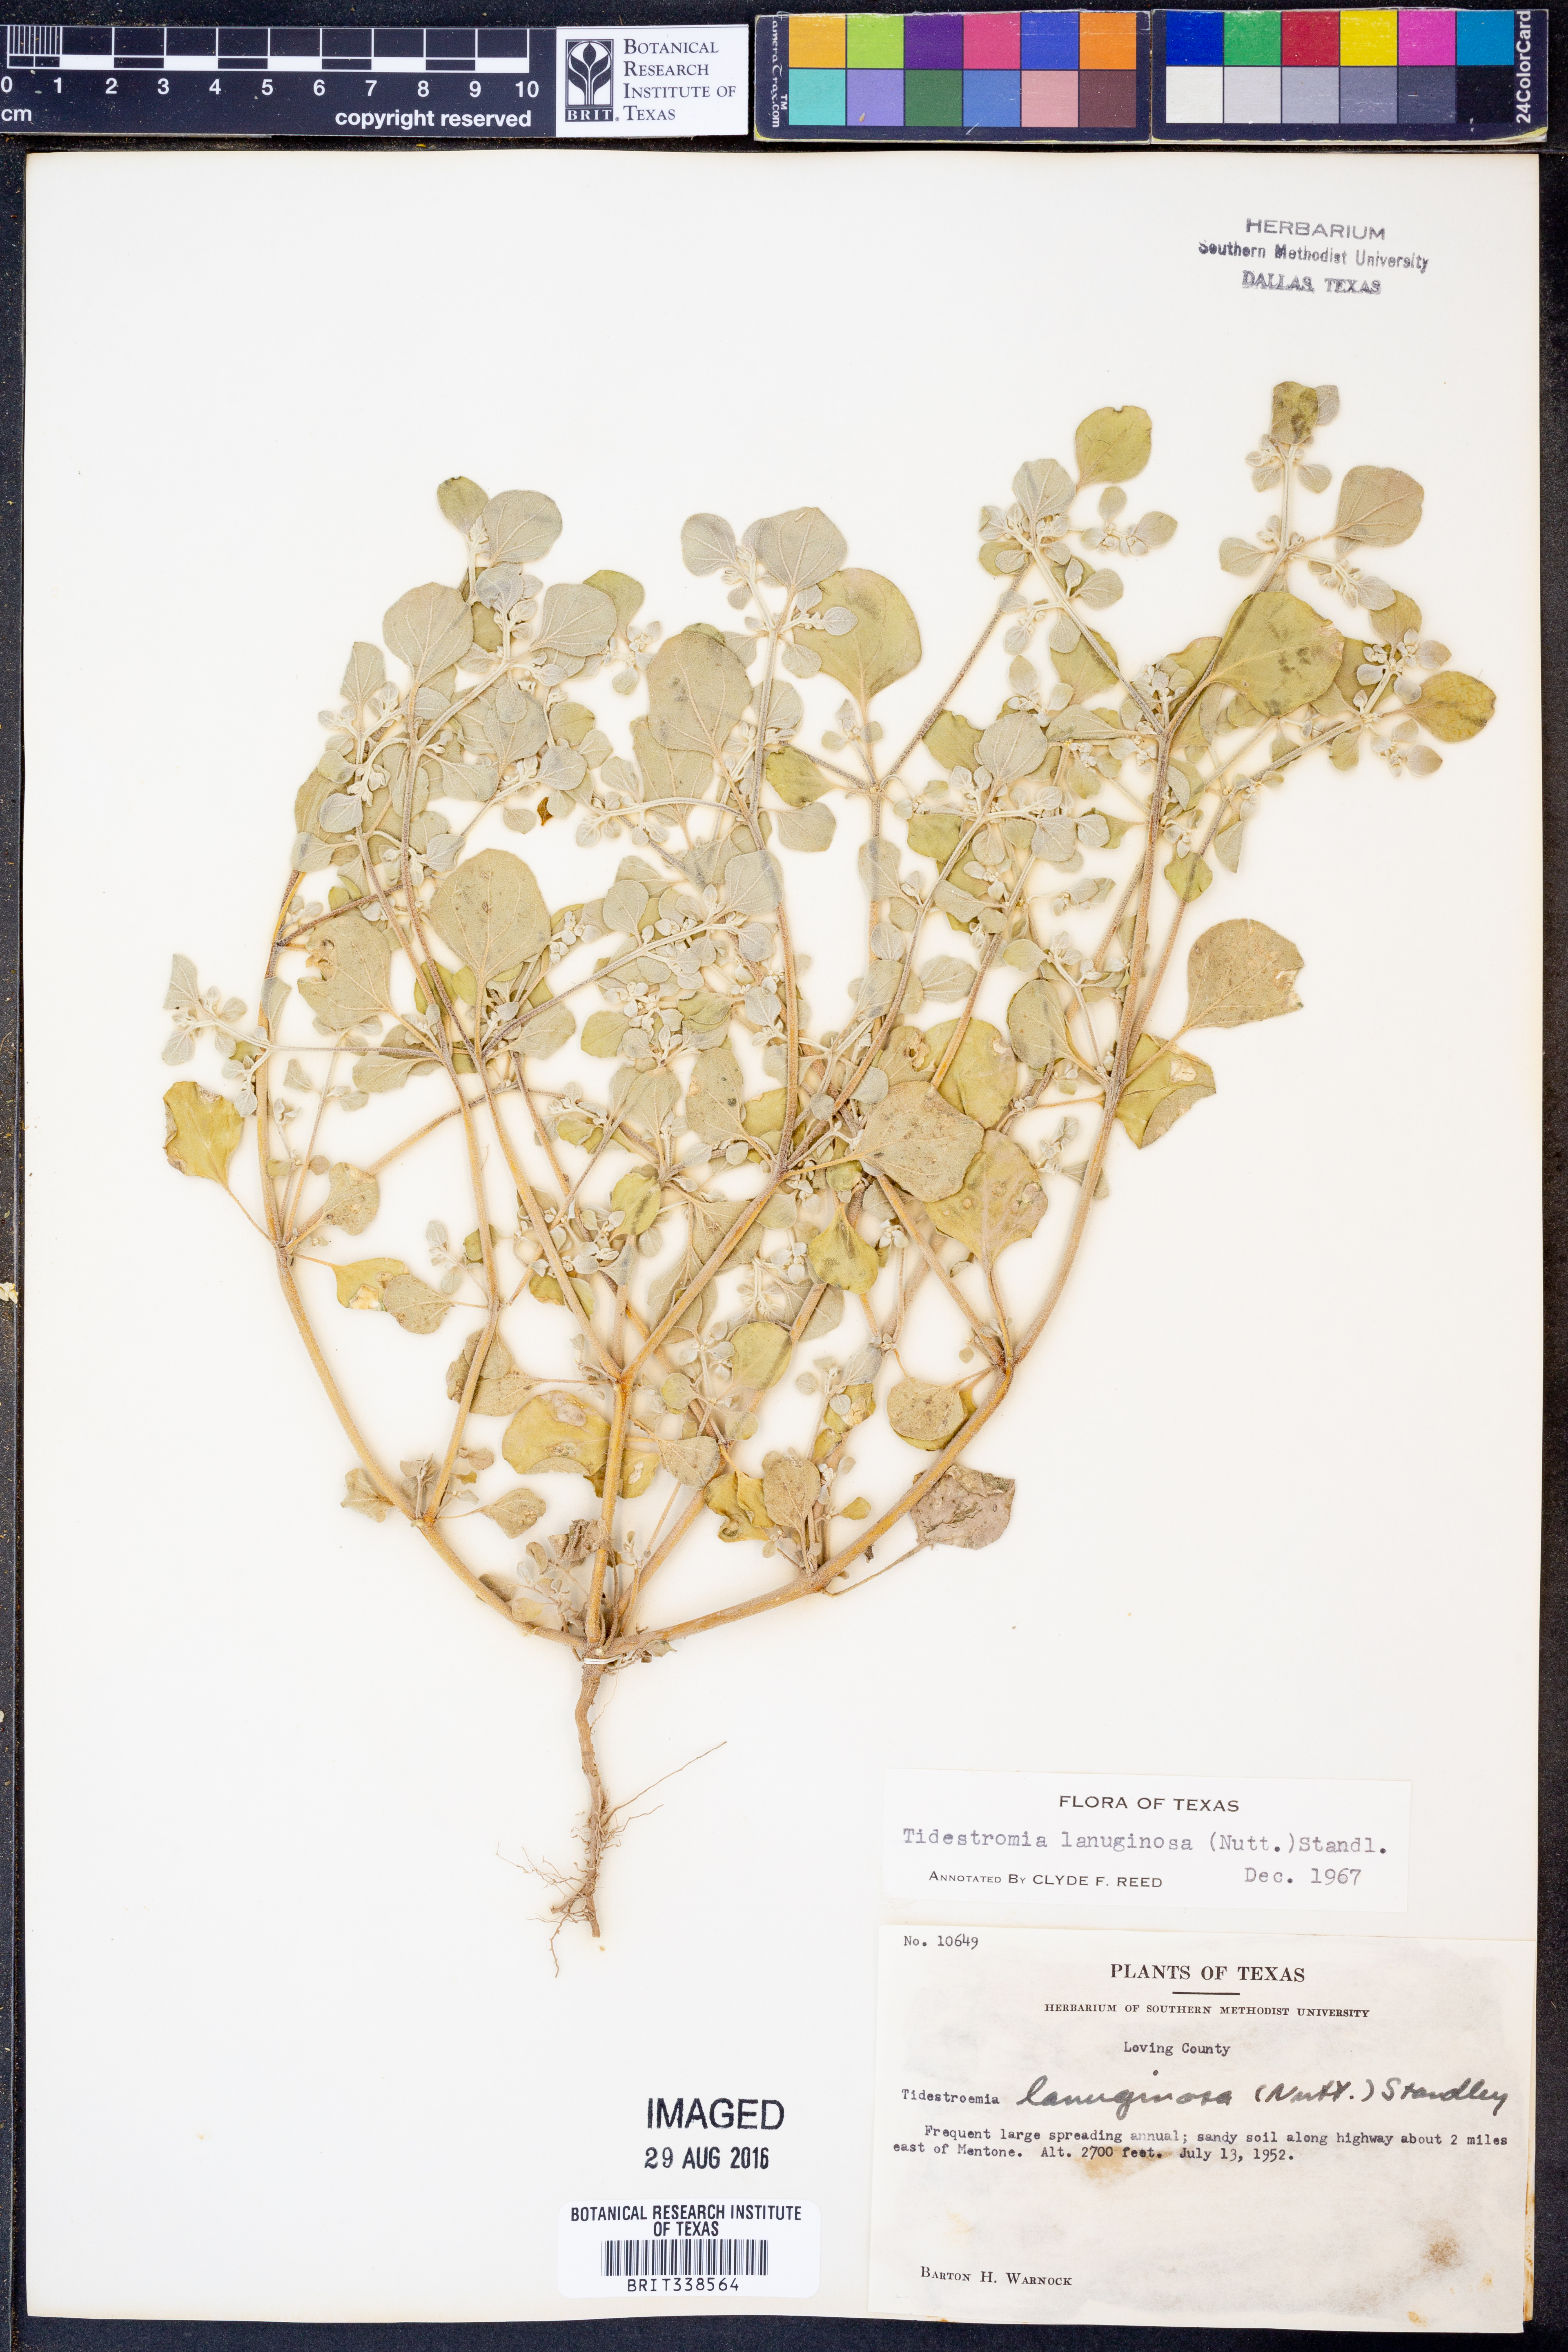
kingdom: Plantae
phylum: Tracheophyta
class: Magnoliopsida
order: Caryophyllales
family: Amaranthaceae
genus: Tidestromia
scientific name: Tidestromia lanuginosa
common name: Woolly tidestromia
